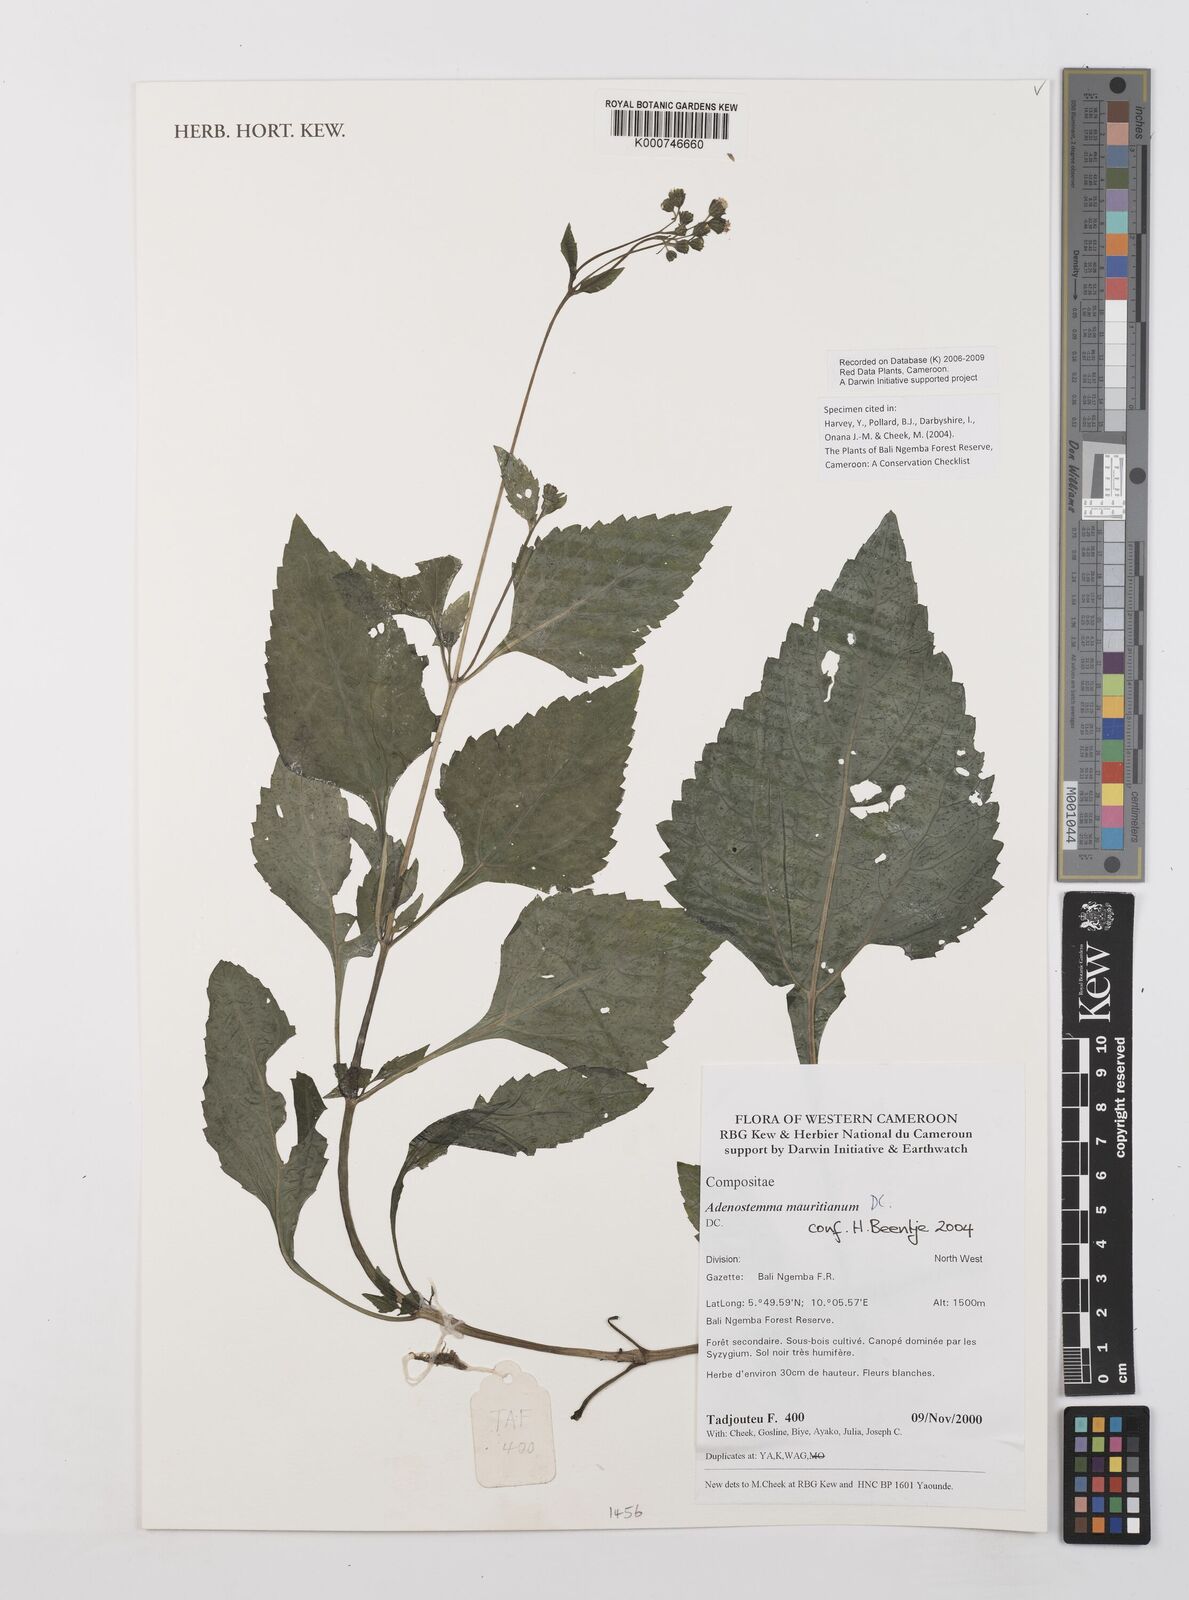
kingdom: Plantae
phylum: Tracheophyta
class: Magnoliopsida
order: Asterales
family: Asteraceae
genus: Adenostemma
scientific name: Adenostemma mauritianum
